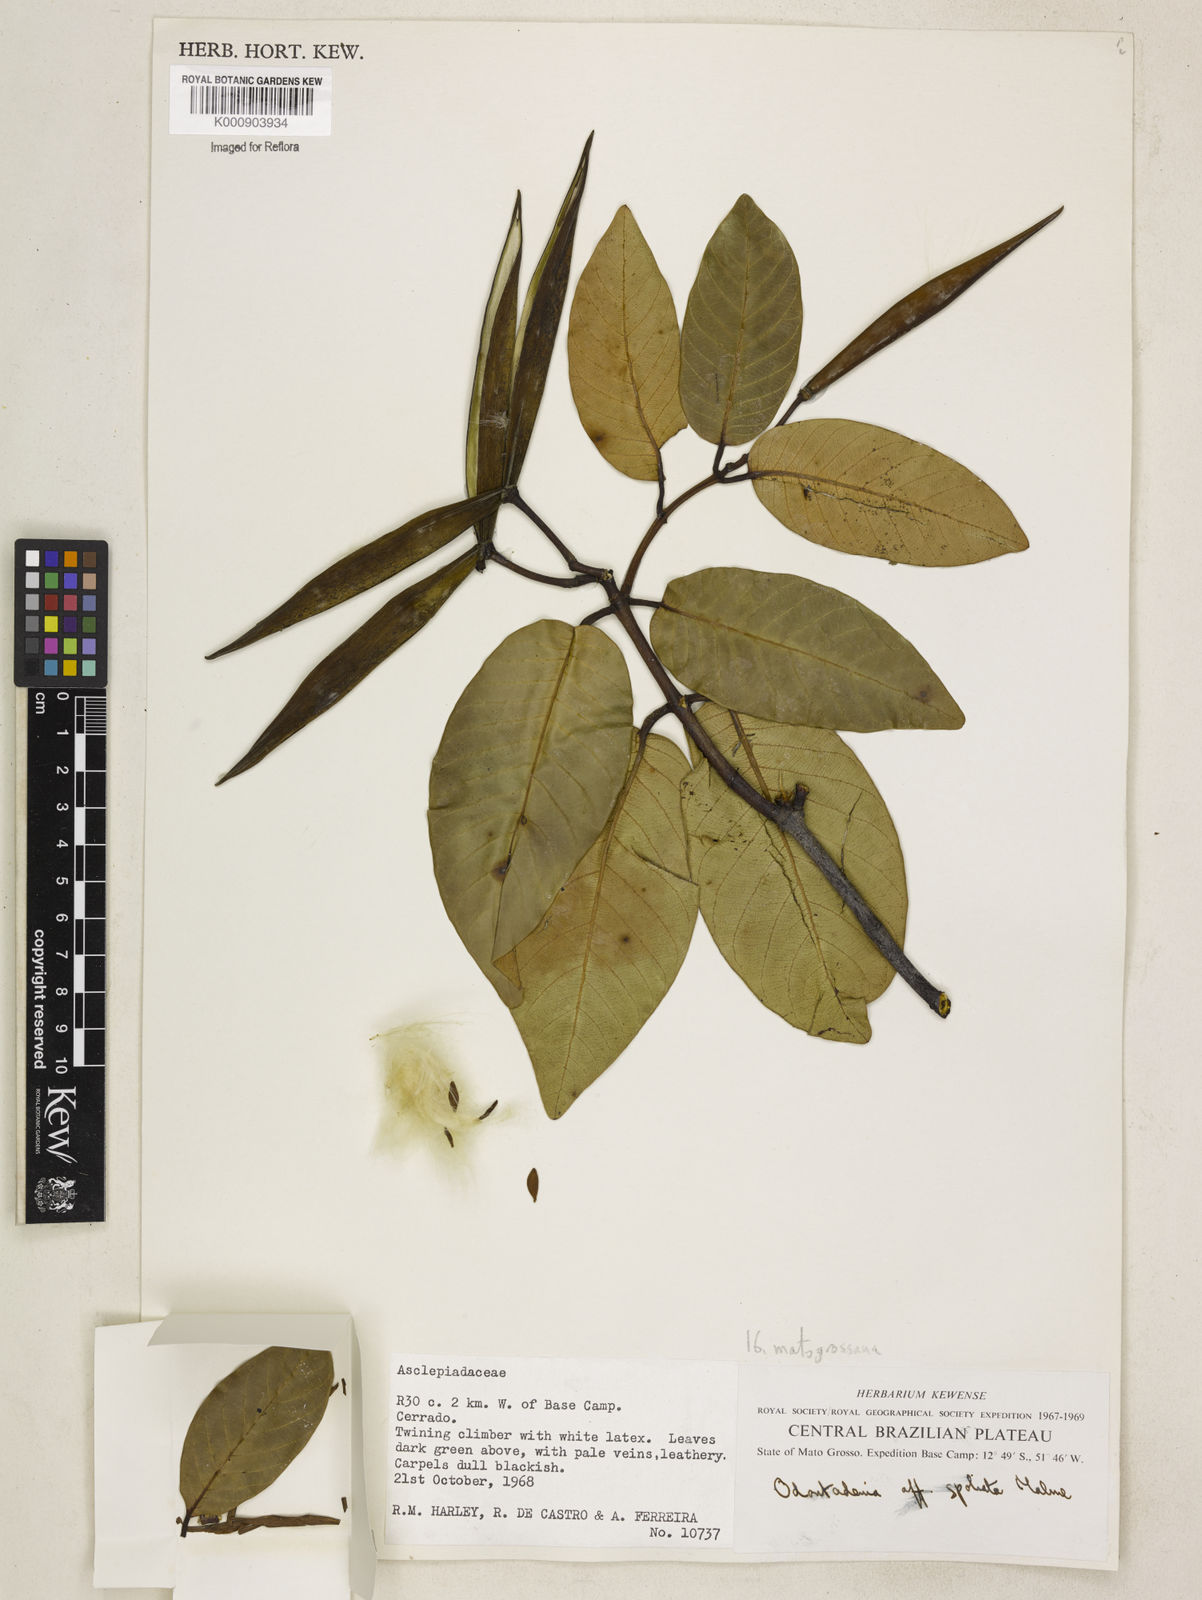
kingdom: Plantae
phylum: Tracheophyta
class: Magnoliopsida
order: Gentianales
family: Apocynaceae
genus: Odontadenia
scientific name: Odontadenia matogrossana
